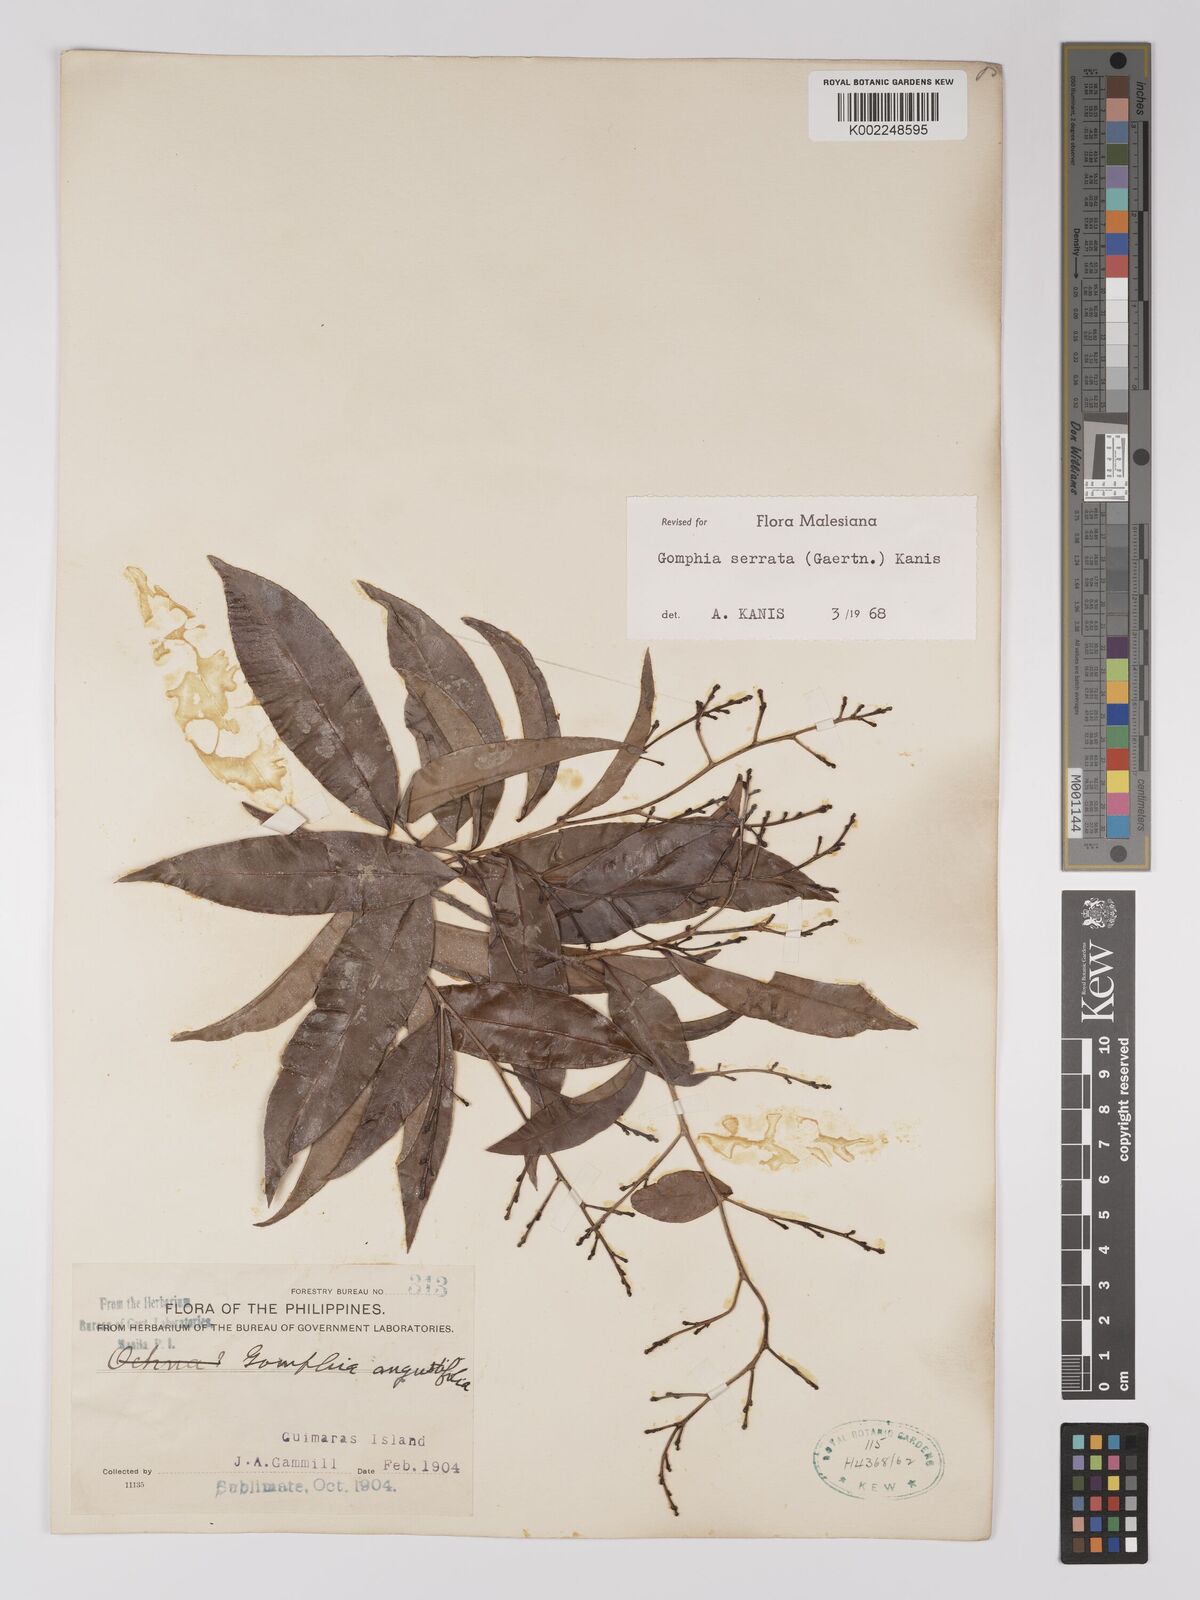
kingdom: Plantae
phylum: Tracheophyta
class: Magnoliopsida
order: Malpighiales
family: Ochnaceae
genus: Gomphia
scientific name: Gomphia serrata
